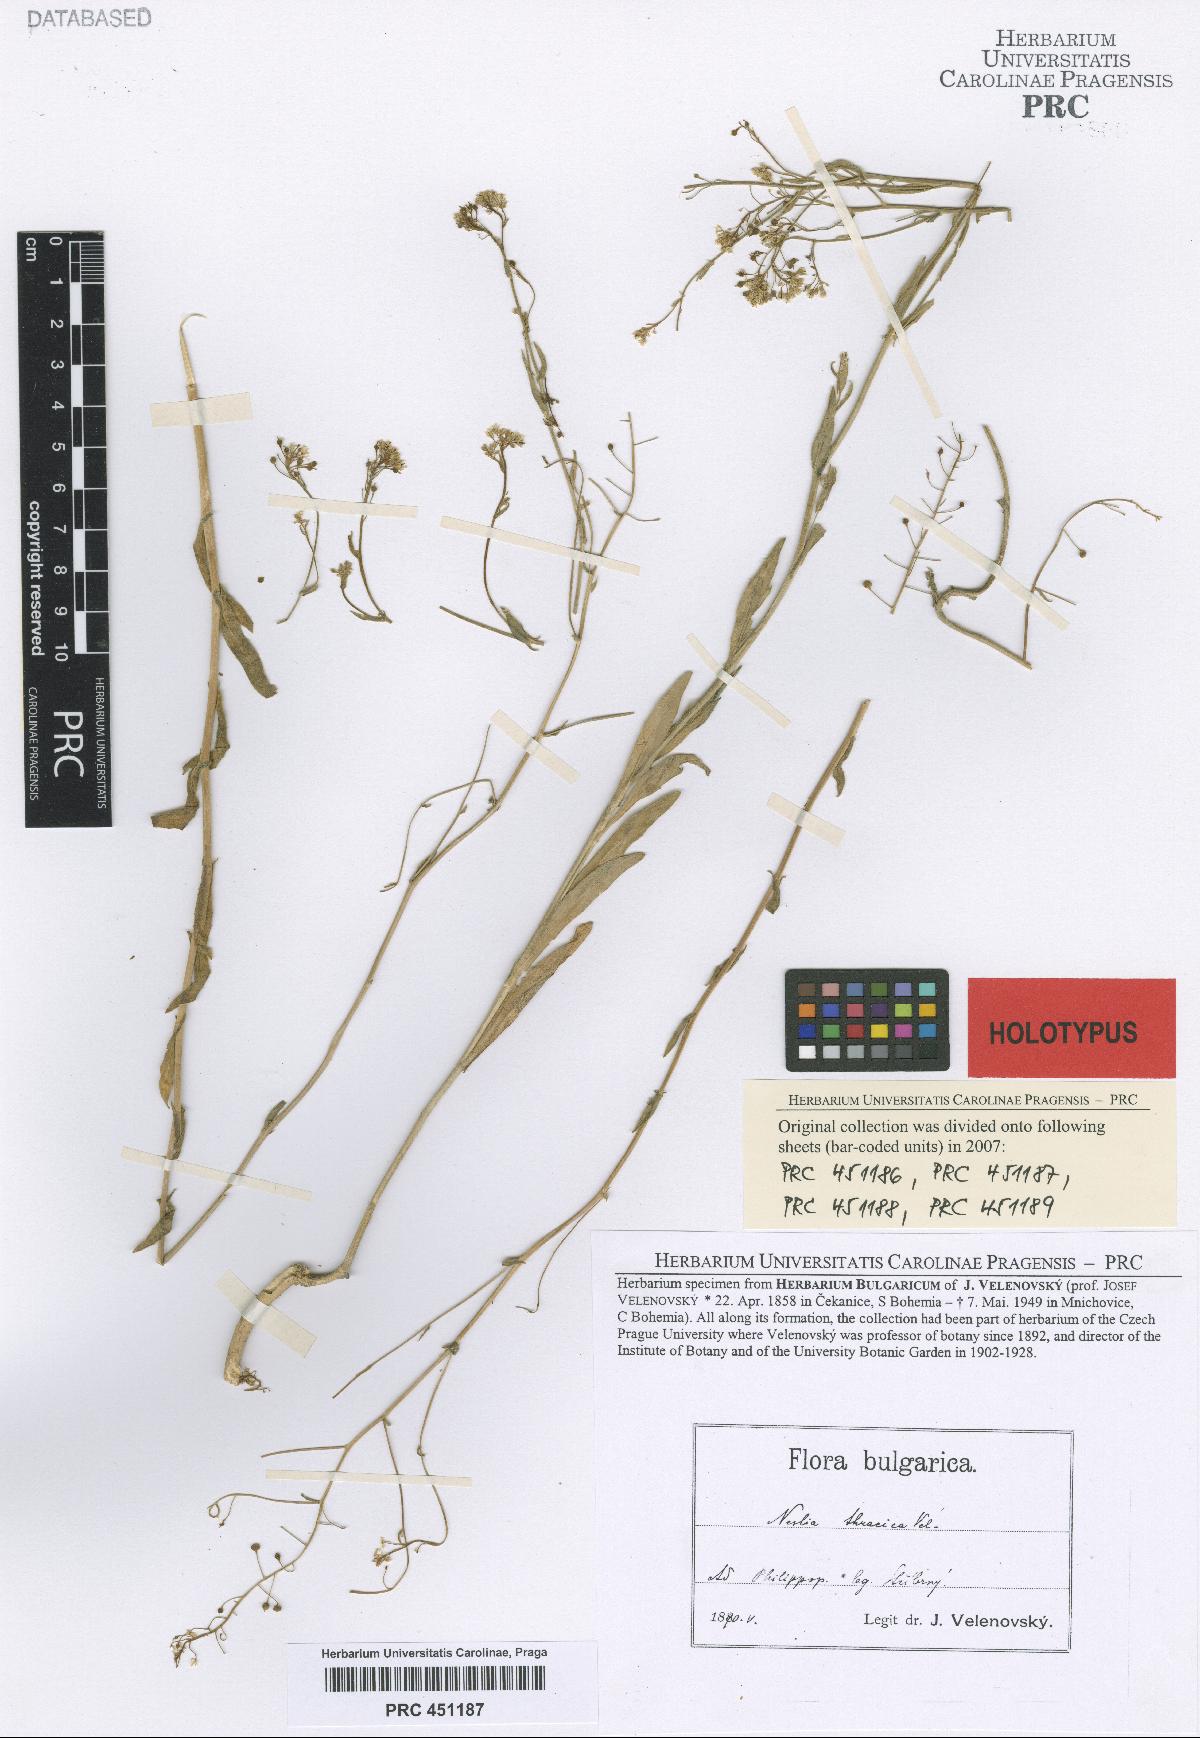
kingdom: Plantae
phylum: Tracheophyta
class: Magnoliopsida
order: Brassicales
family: Brassicaceae
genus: Neslia
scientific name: Neslia paniculata
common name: Ball mustard
